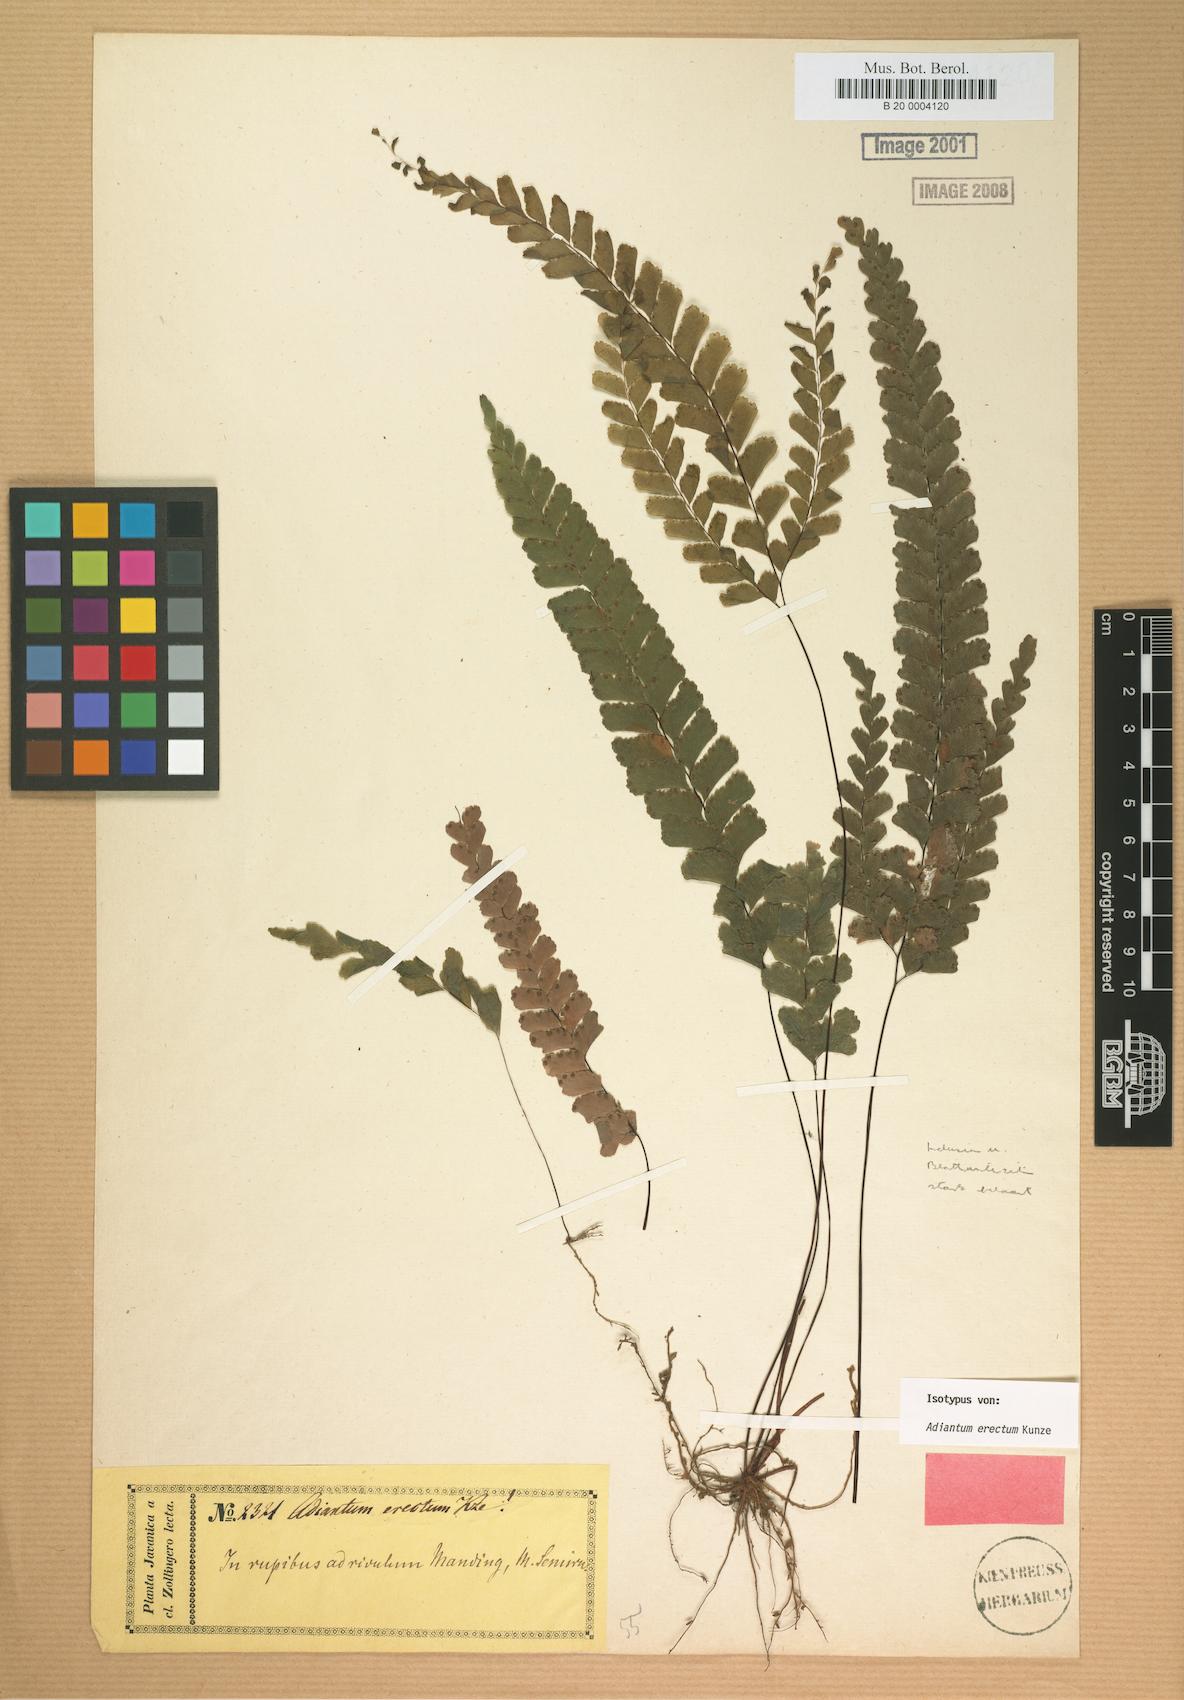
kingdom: Plantae
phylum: Tracheophyta
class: Polypodiopsida
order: Polypodiales
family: Pteridaceae
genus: Adiantum
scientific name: Adiantum diaphanum
